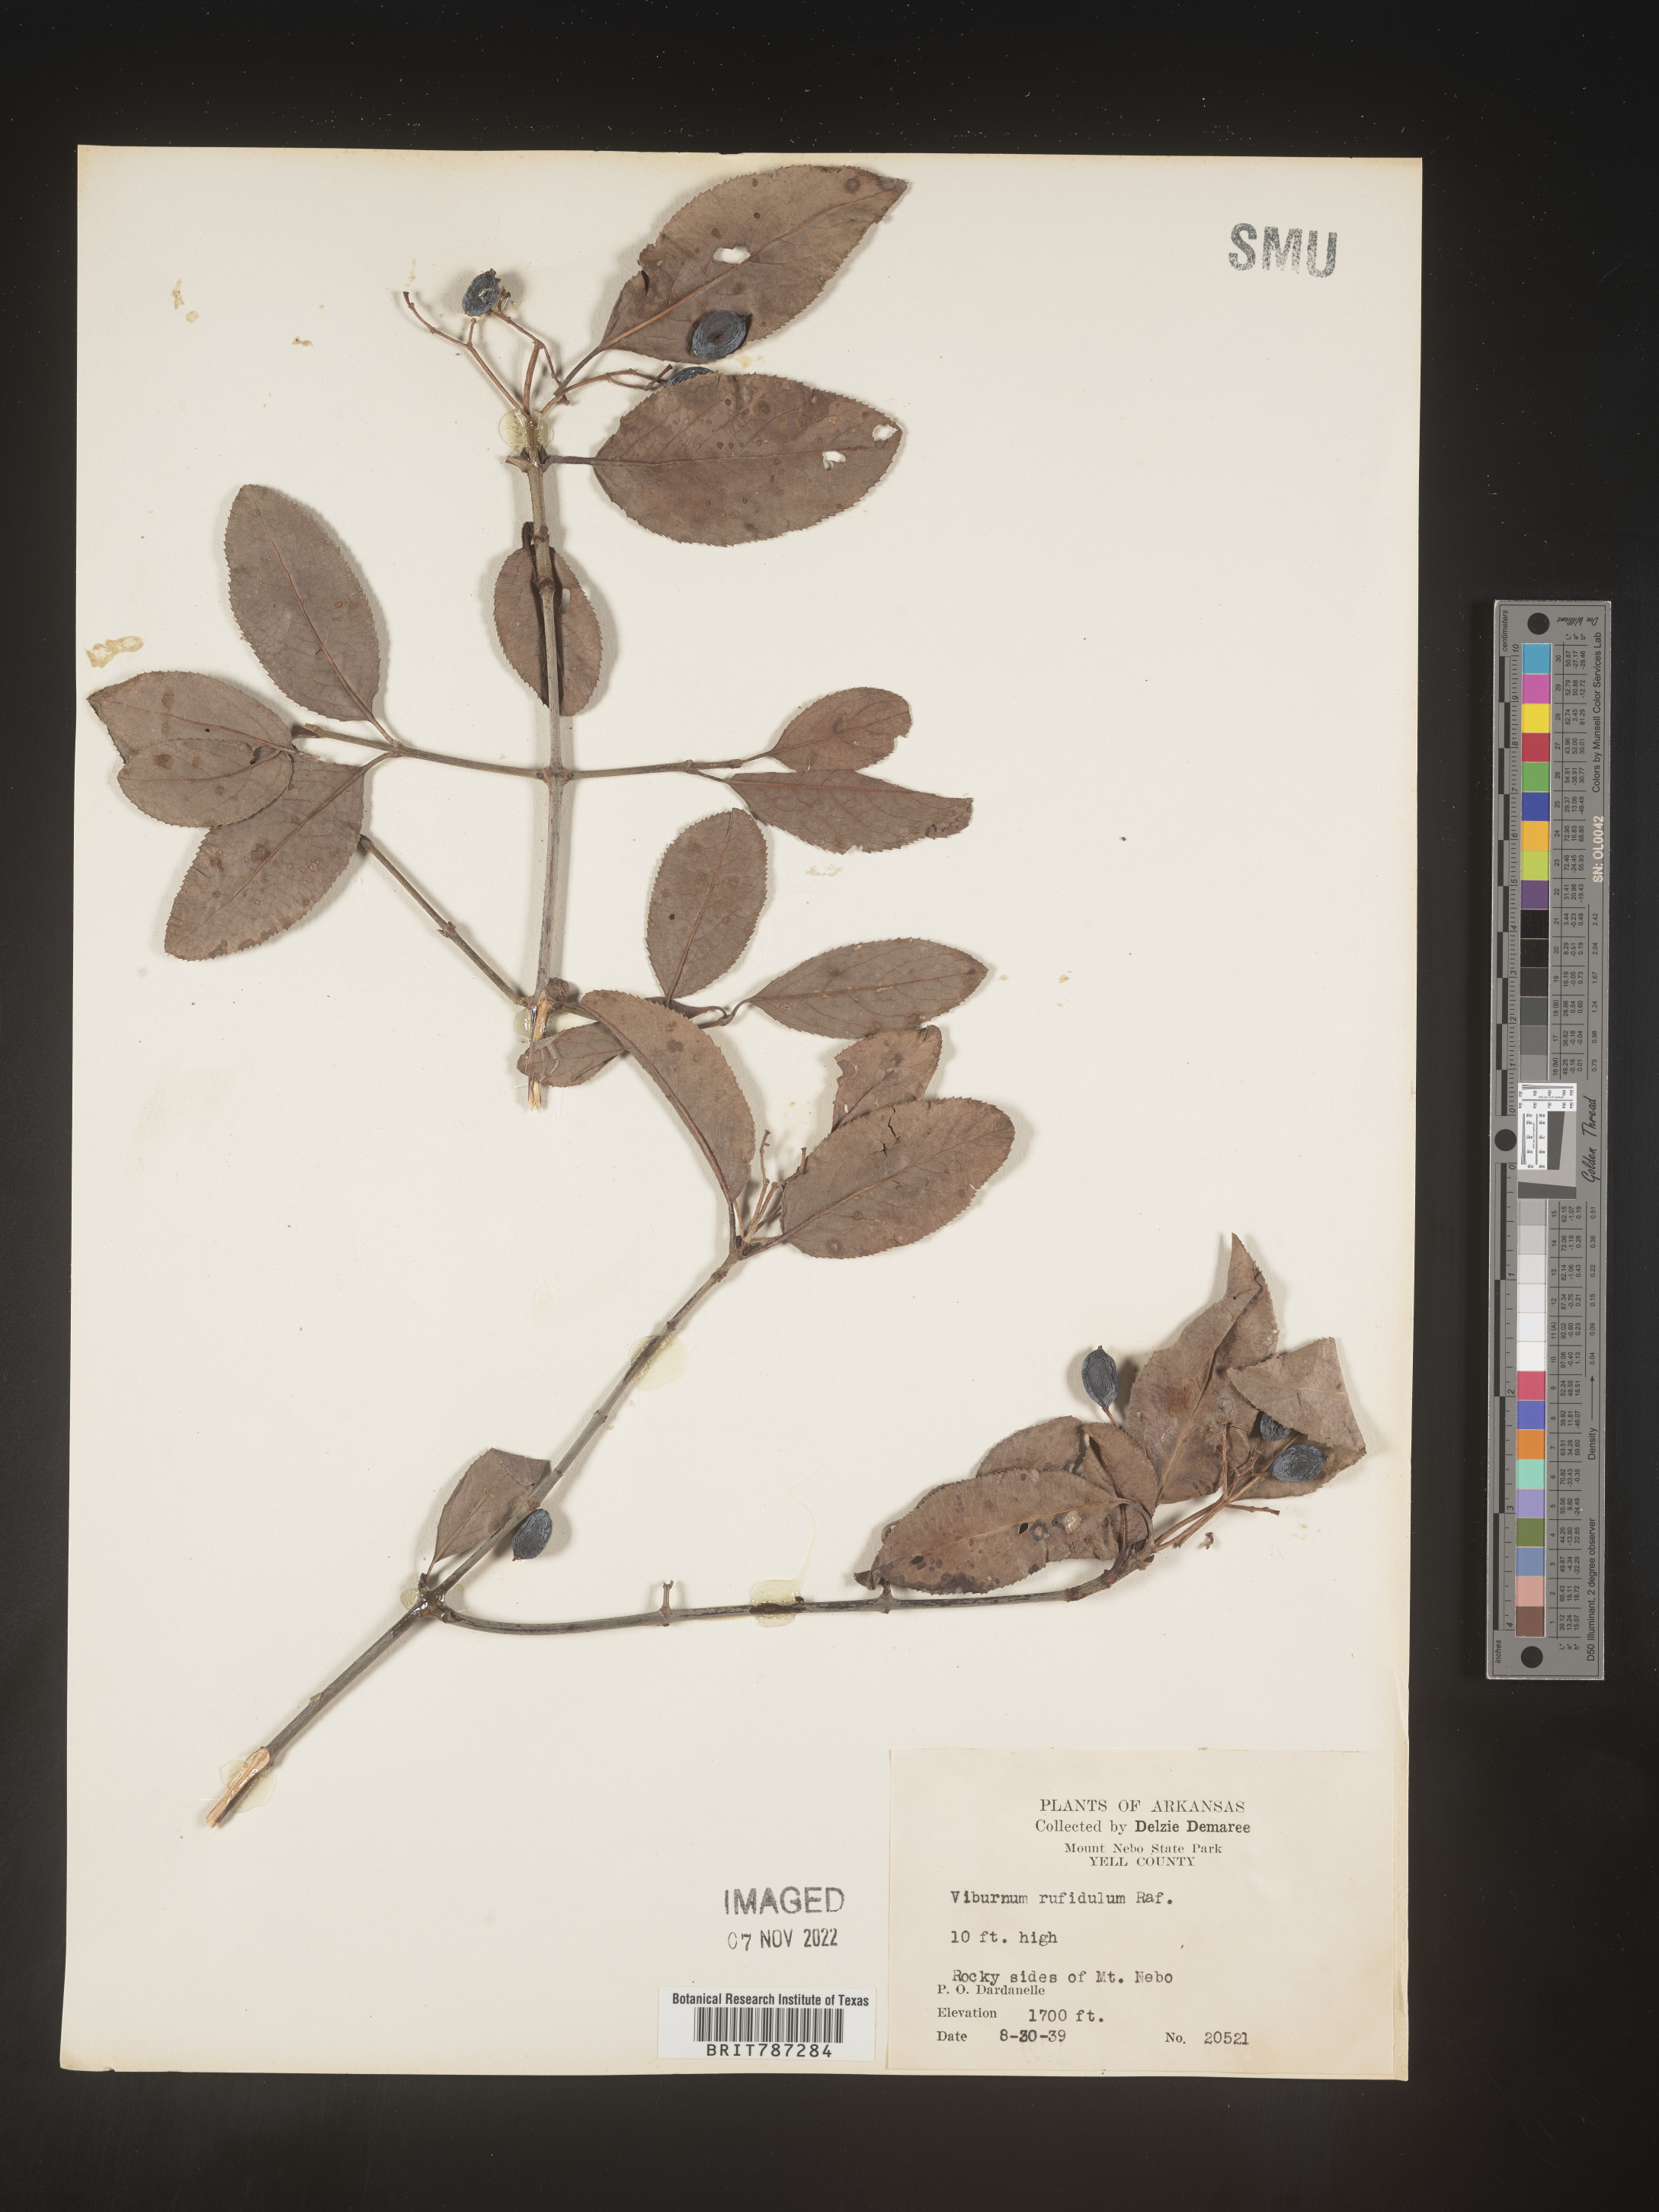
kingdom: Plantae
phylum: Tracheophyta
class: Magnoliopsida
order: Dipsacales
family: Viburnaceae
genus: Viburnum
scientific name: Viburnum rufidulum
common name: Blue haw
